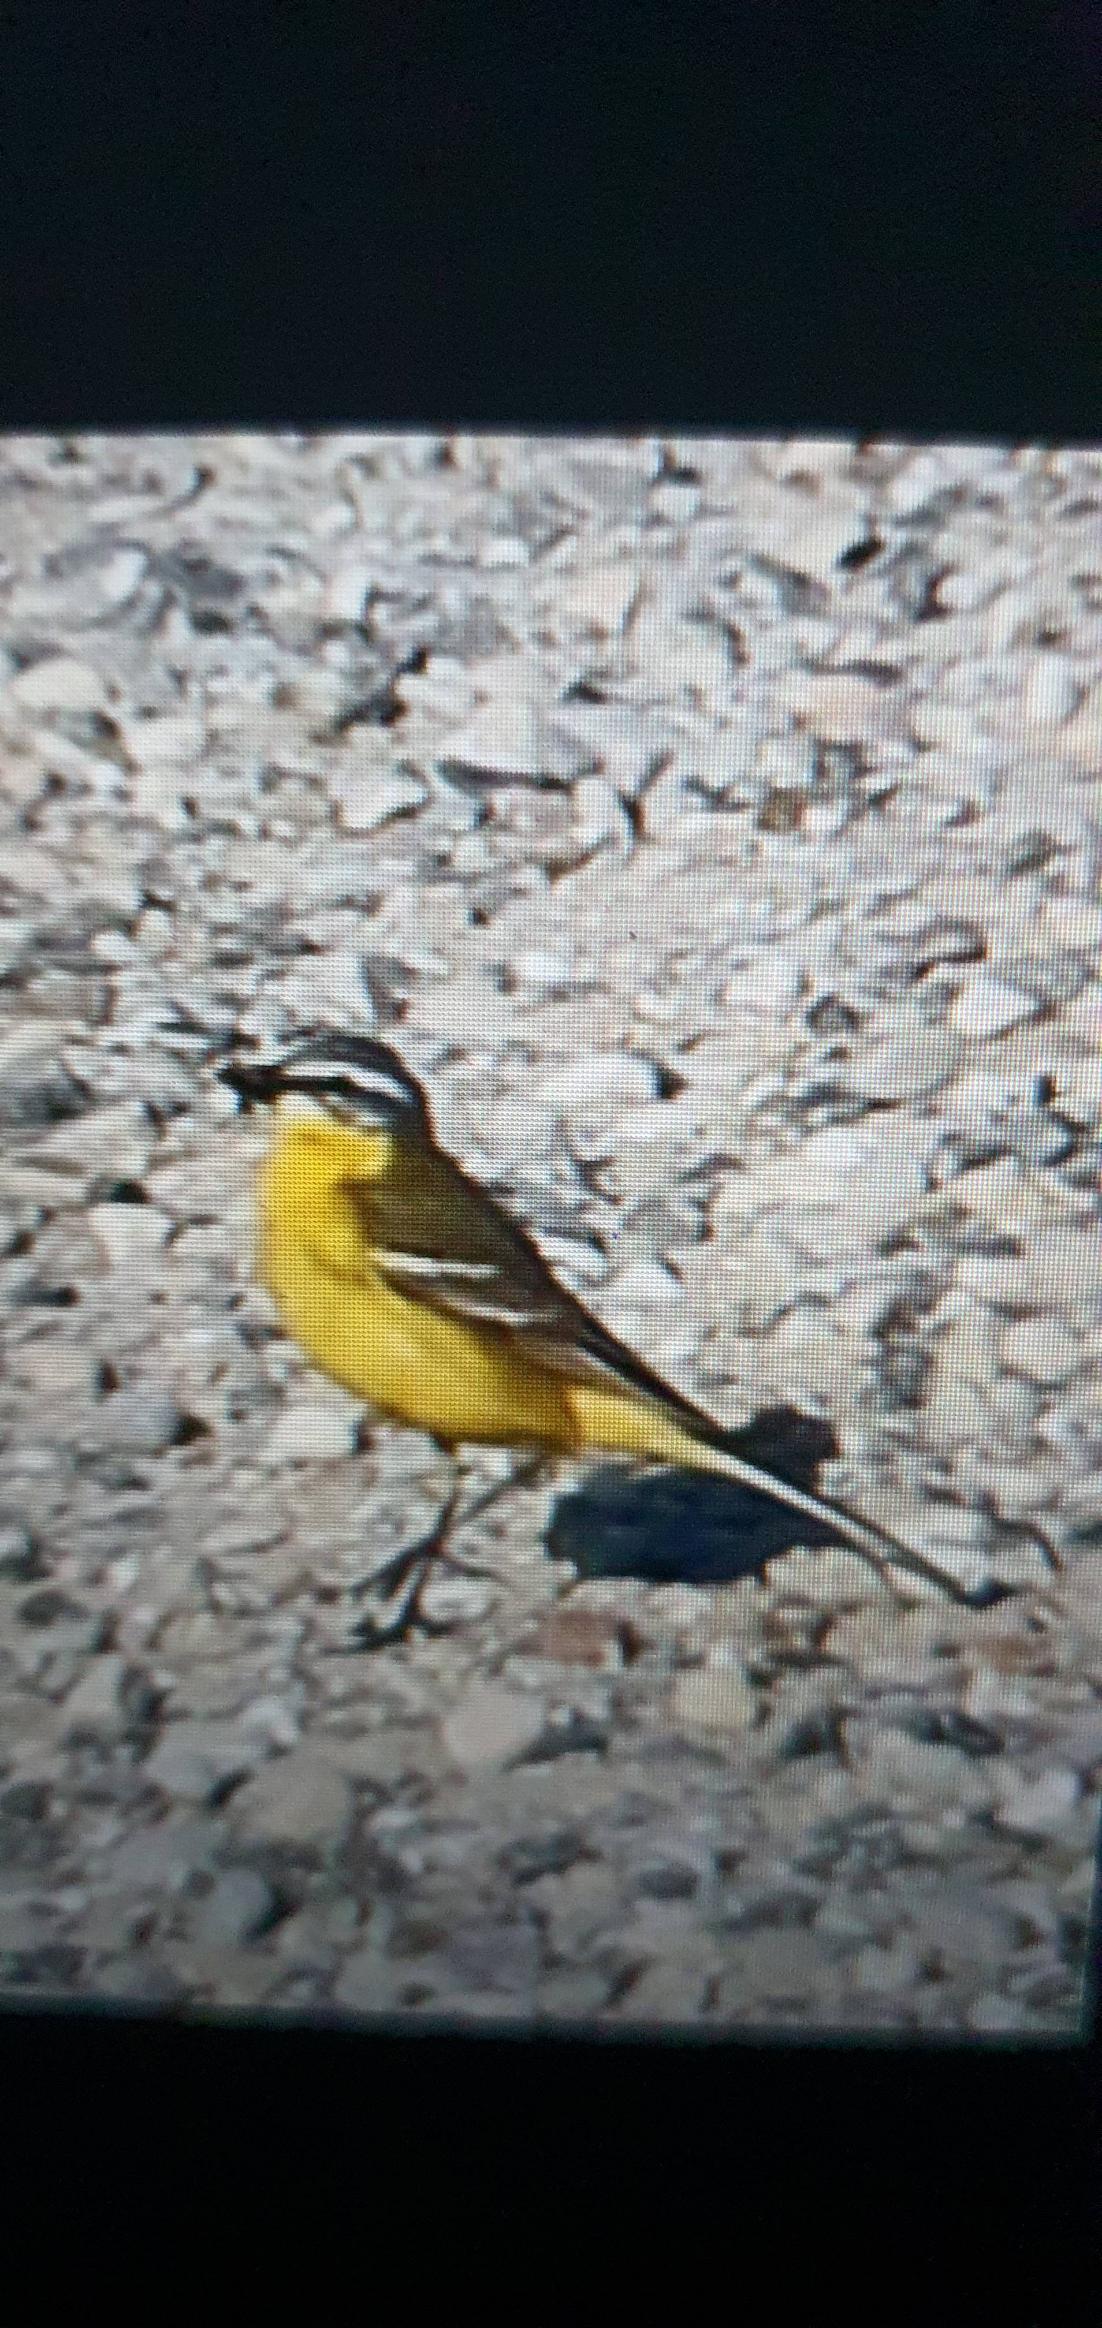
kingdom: Animalia
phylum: Chordata
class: Aves
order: Passeriformes
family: Motacillidae
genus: Motacilla
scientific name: Motacilla flava
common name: Gul vipstjert
